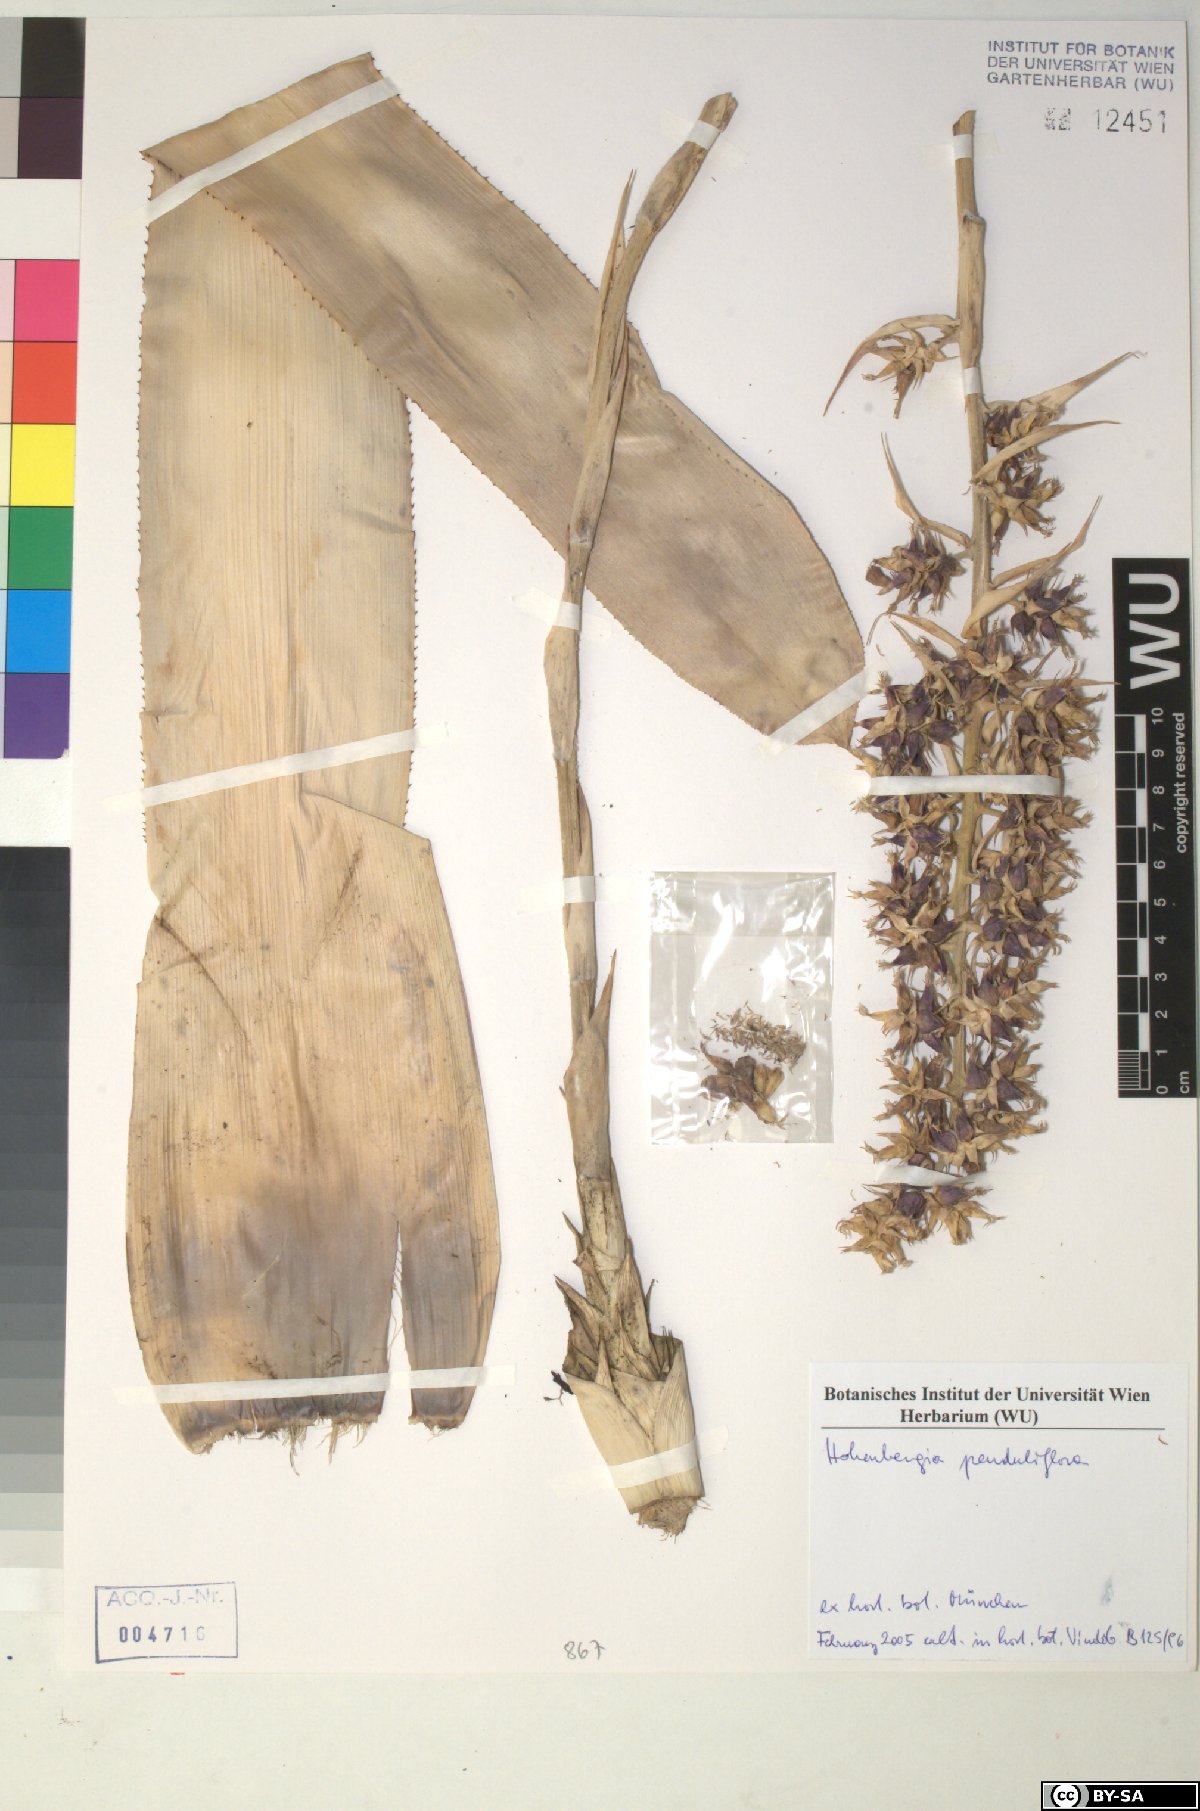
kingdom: Plantae
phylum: Tracheophyta
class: Liliopsida
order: Poales
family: Bromeliaceae
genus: Pitcairnia
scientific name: Pitcairnia bakiorum
